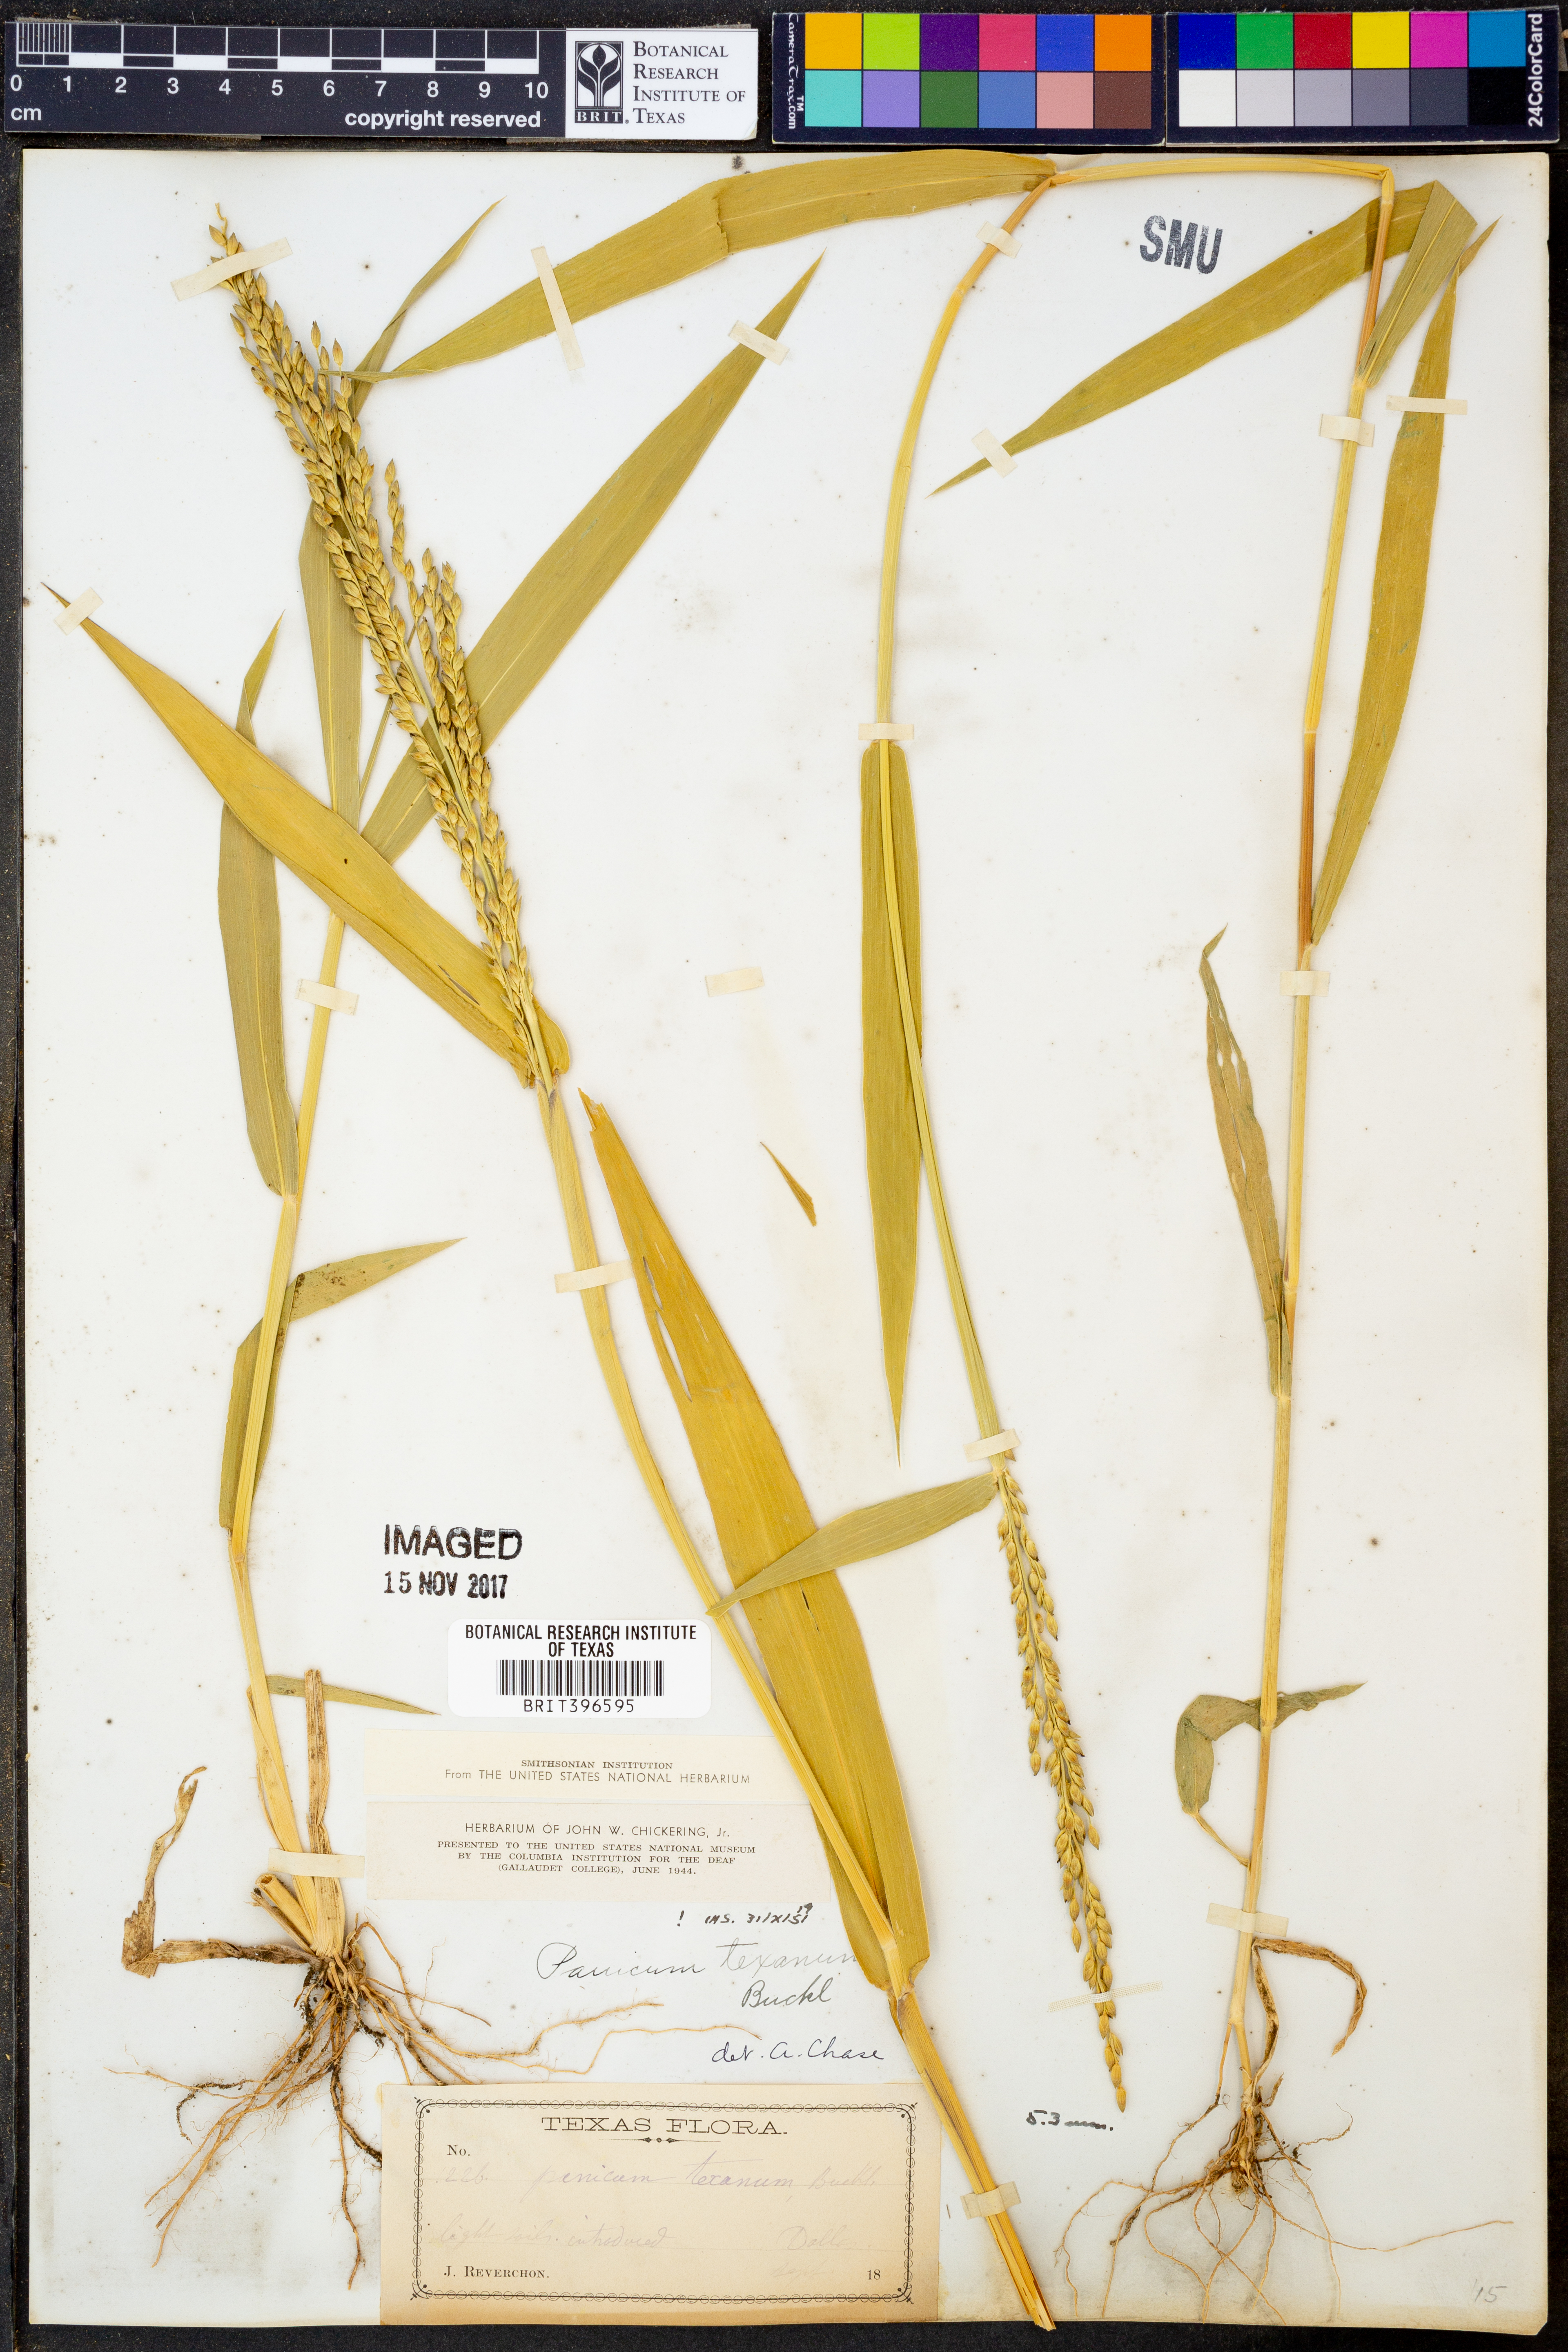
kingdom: Plantae
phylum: Tracheophyta
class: Liliopsida
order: Poales
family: Poaceae
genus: Urochloa
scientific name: Urochloa texana
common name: Texas millet
